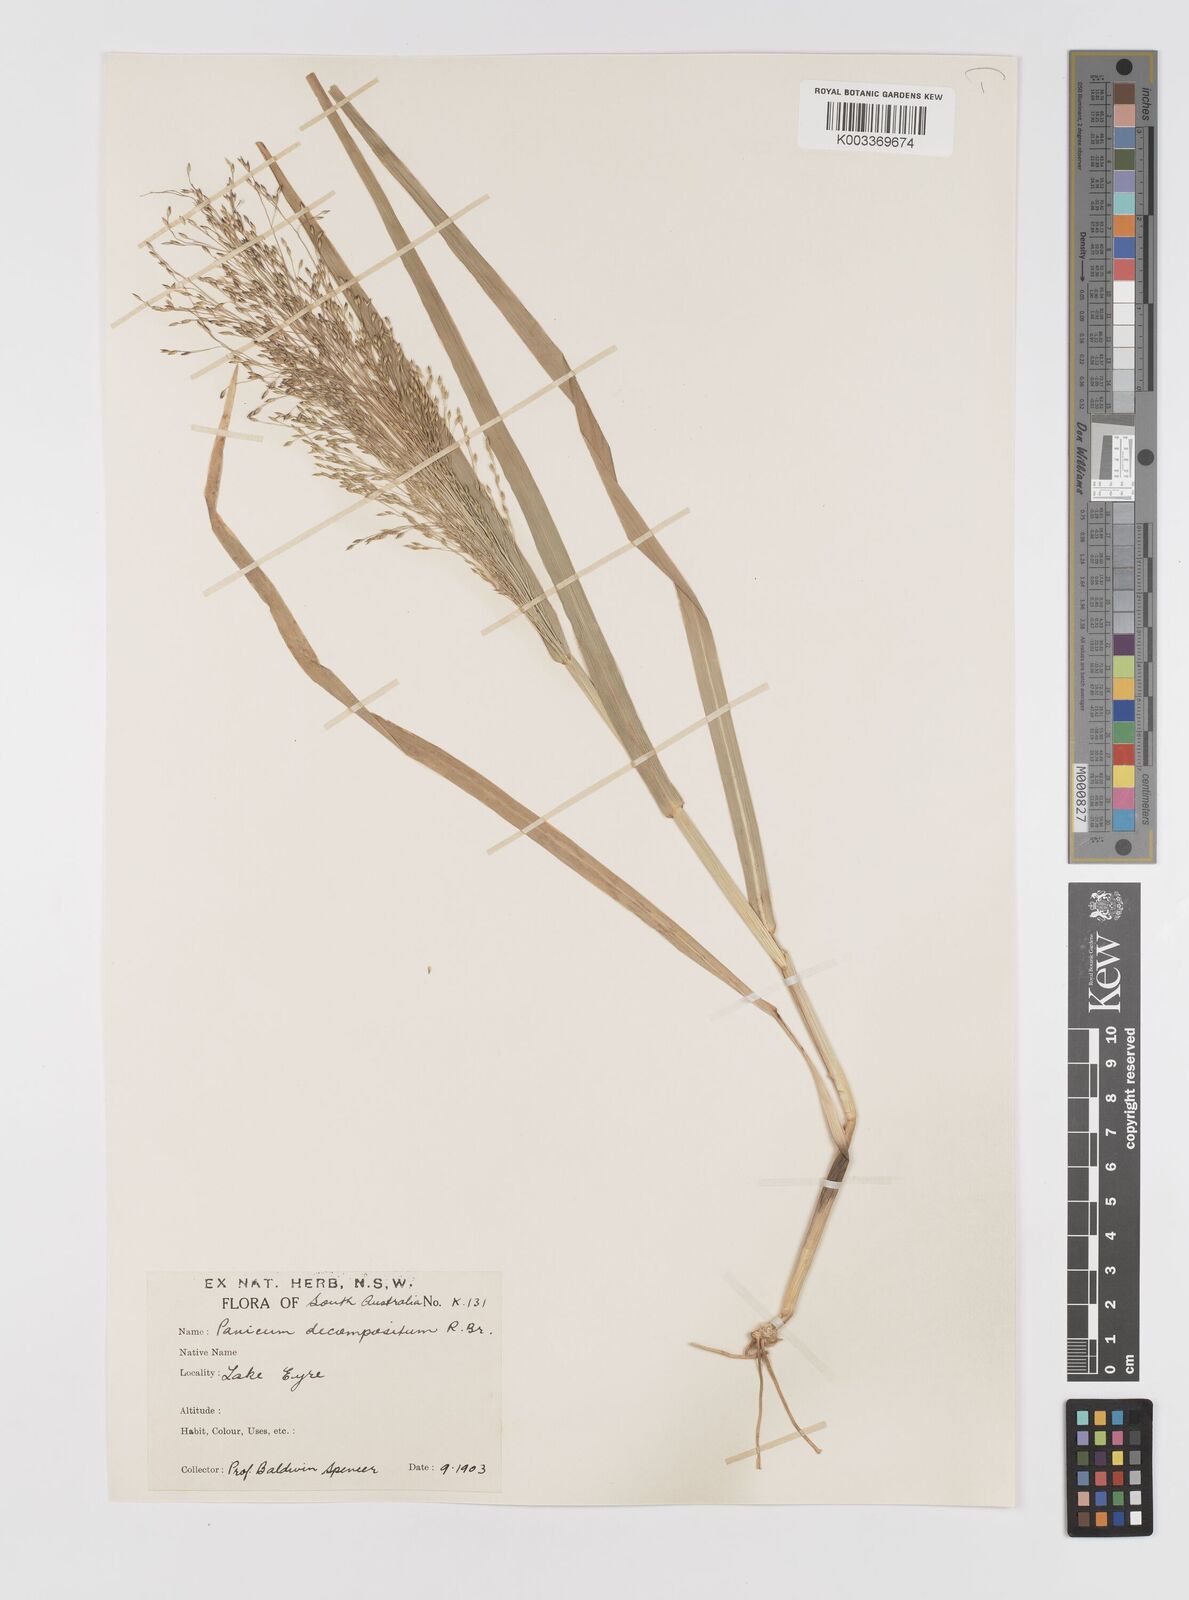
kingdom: Plantae
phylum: Tracheophyta
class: Liliopsida
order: Poales
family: Poaceae
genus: Panicum
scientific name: Panicum decompositum
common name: Australian millet
